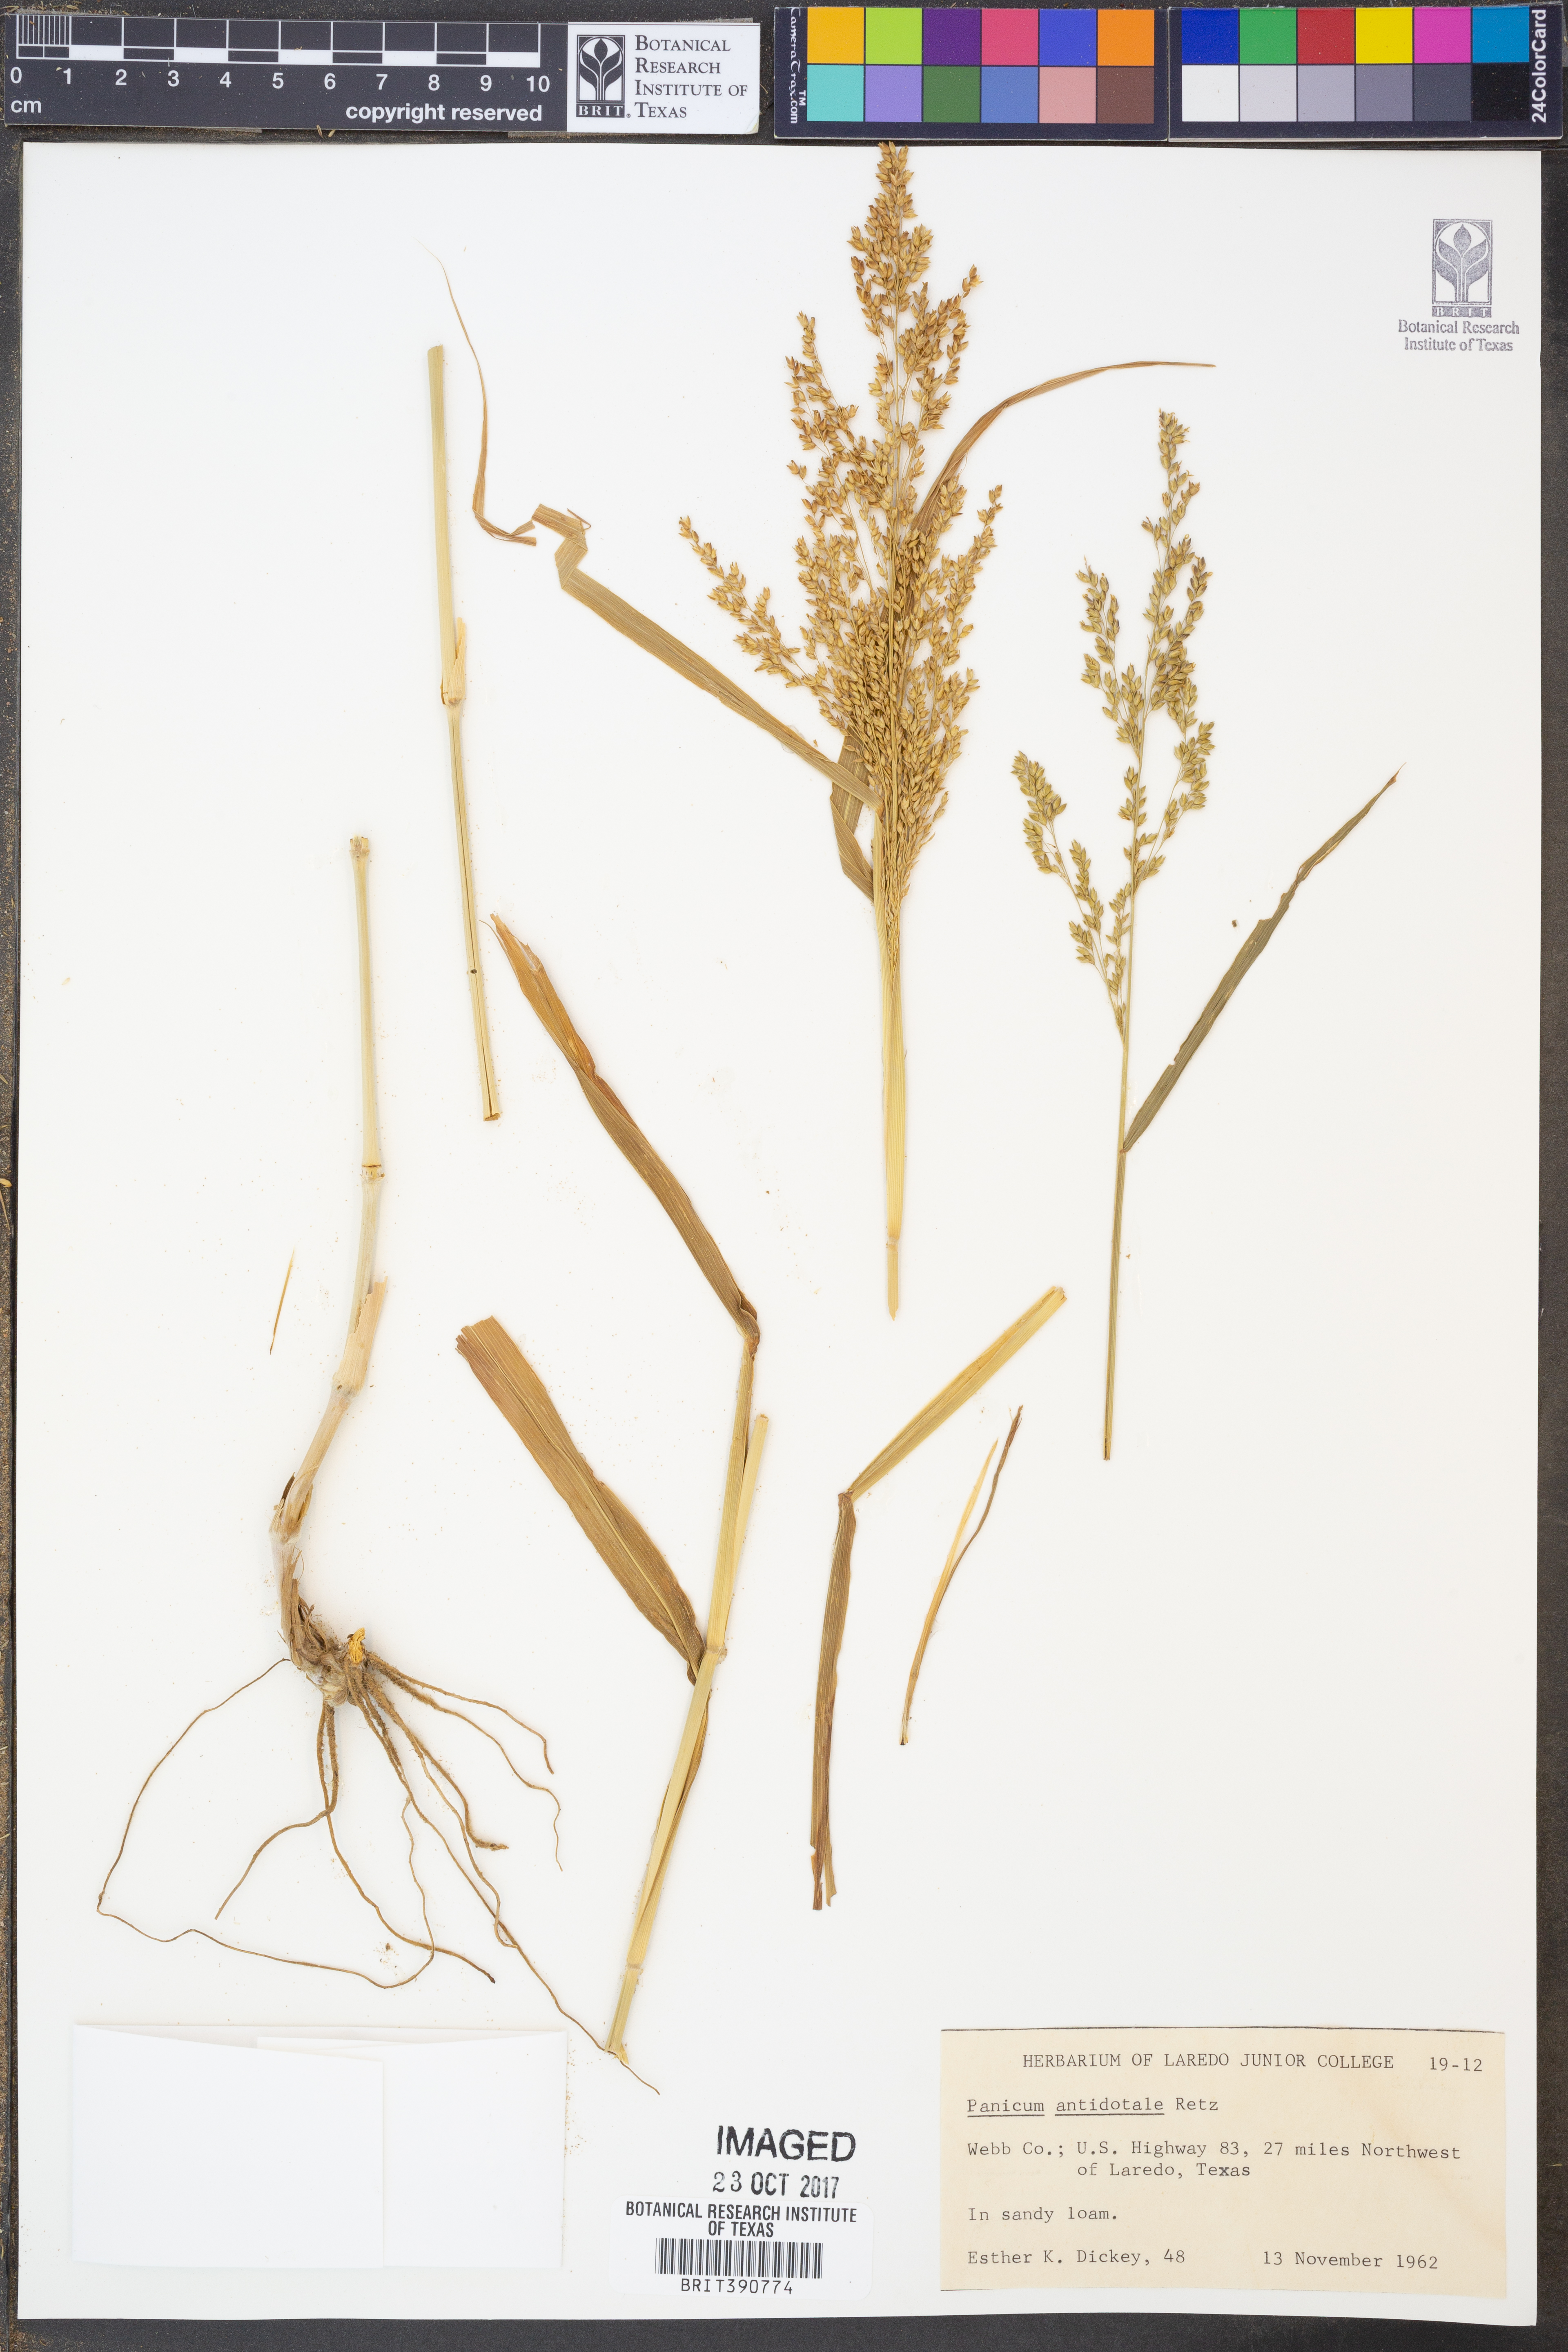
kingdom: Plantae
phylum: Tracheophyta
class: Liliopsida
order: Poales
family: Poaceae
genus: Panicum
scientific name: Panicum antidotale
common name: Blue panicum
